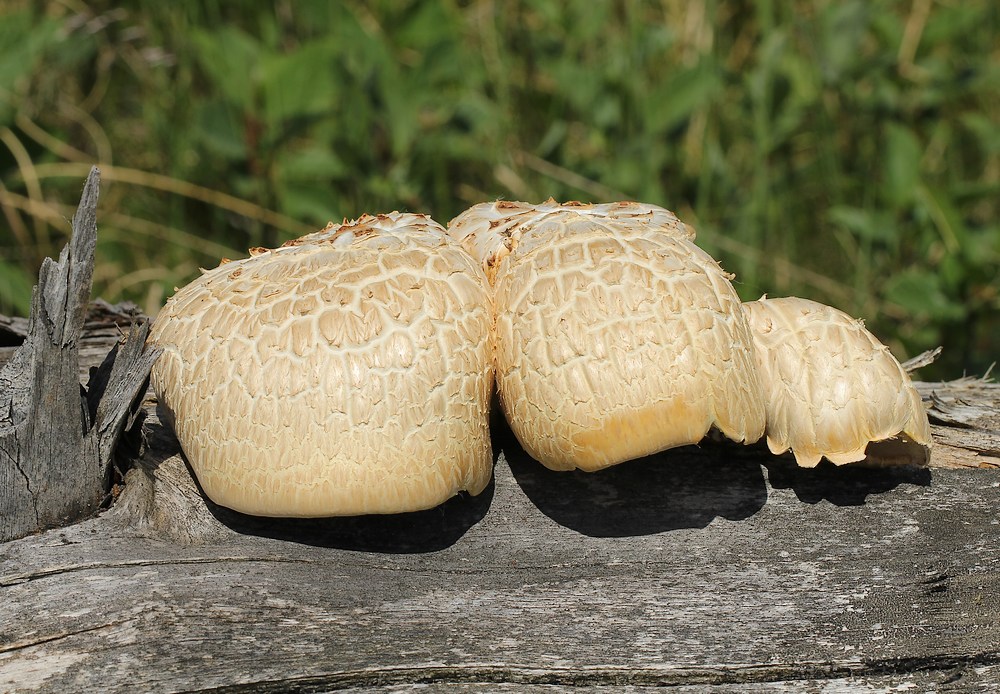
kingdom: Fungi
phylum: Basidiomycota
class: Agaricomycetes
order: Gloeophyllales
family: Gloeophyllaceae
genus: Neolentinus
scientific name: Neolentinus lepideus
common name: skællet sejhat
